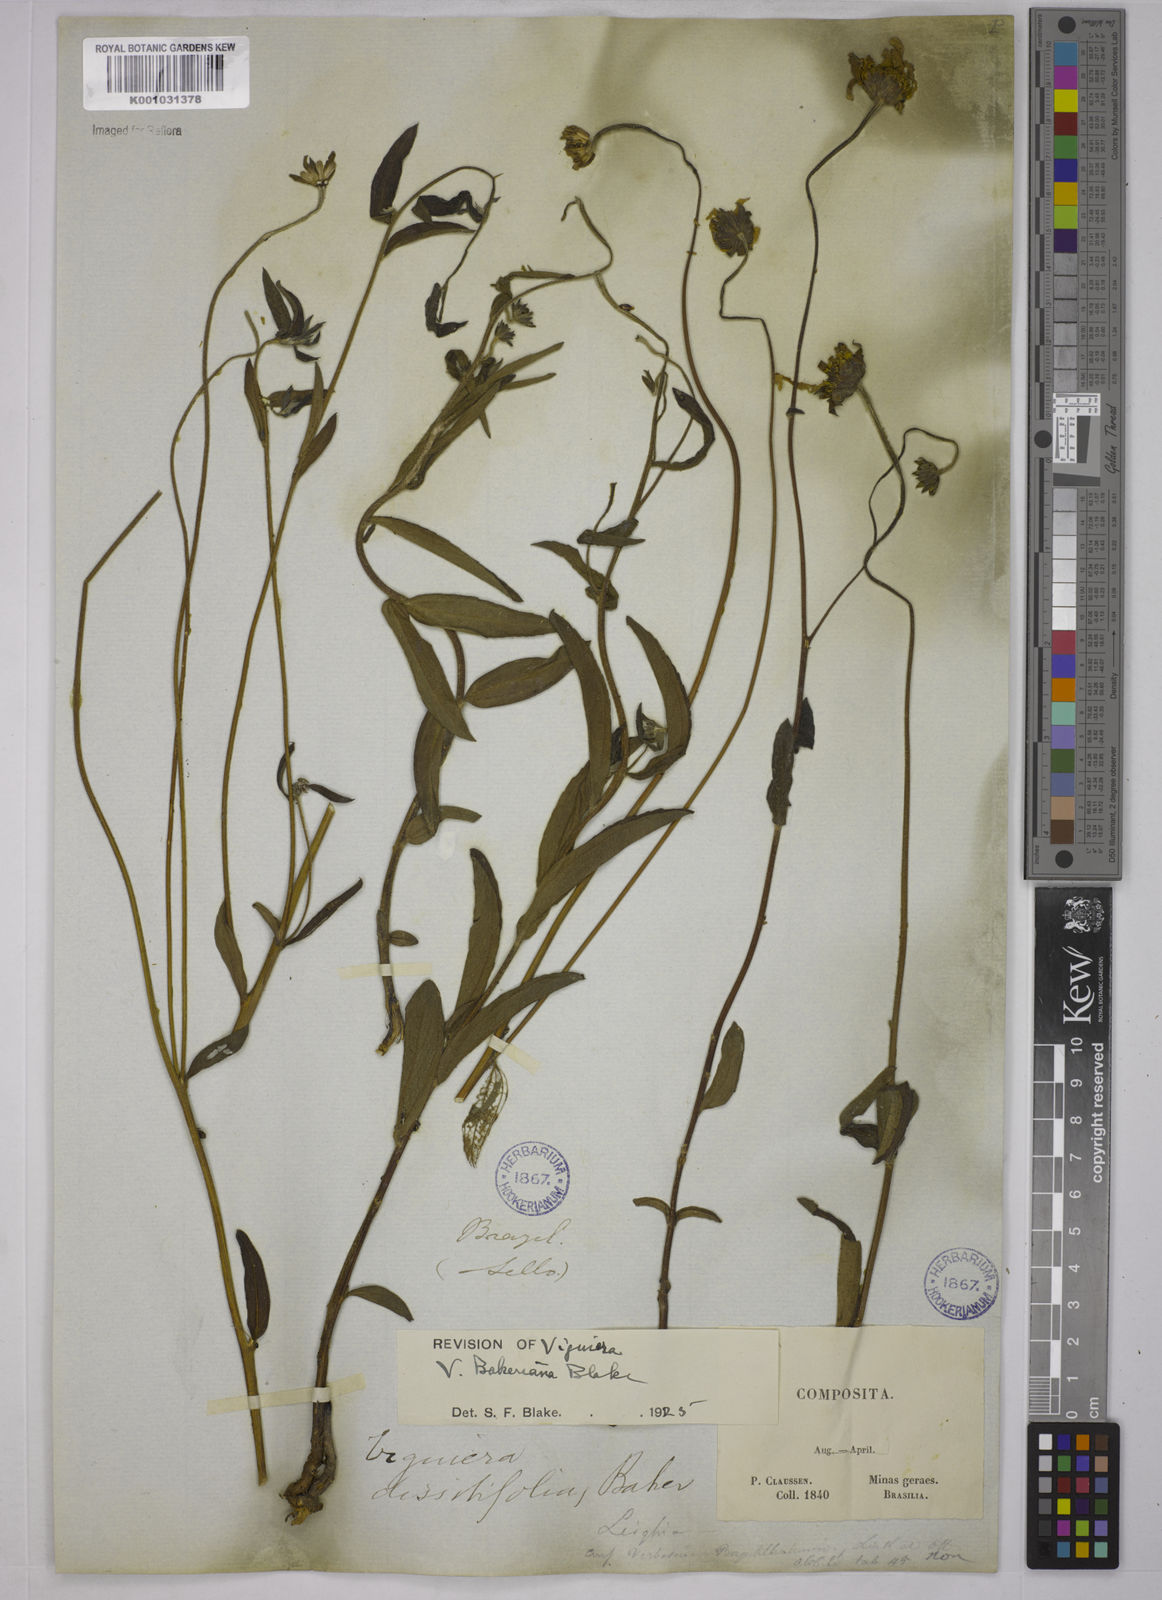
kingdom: Plantae
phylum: Tracheophyta
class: Magnoliopsida
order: Asterales
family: Asteraceae
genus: Aldama
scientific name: Aldama bakeriana
